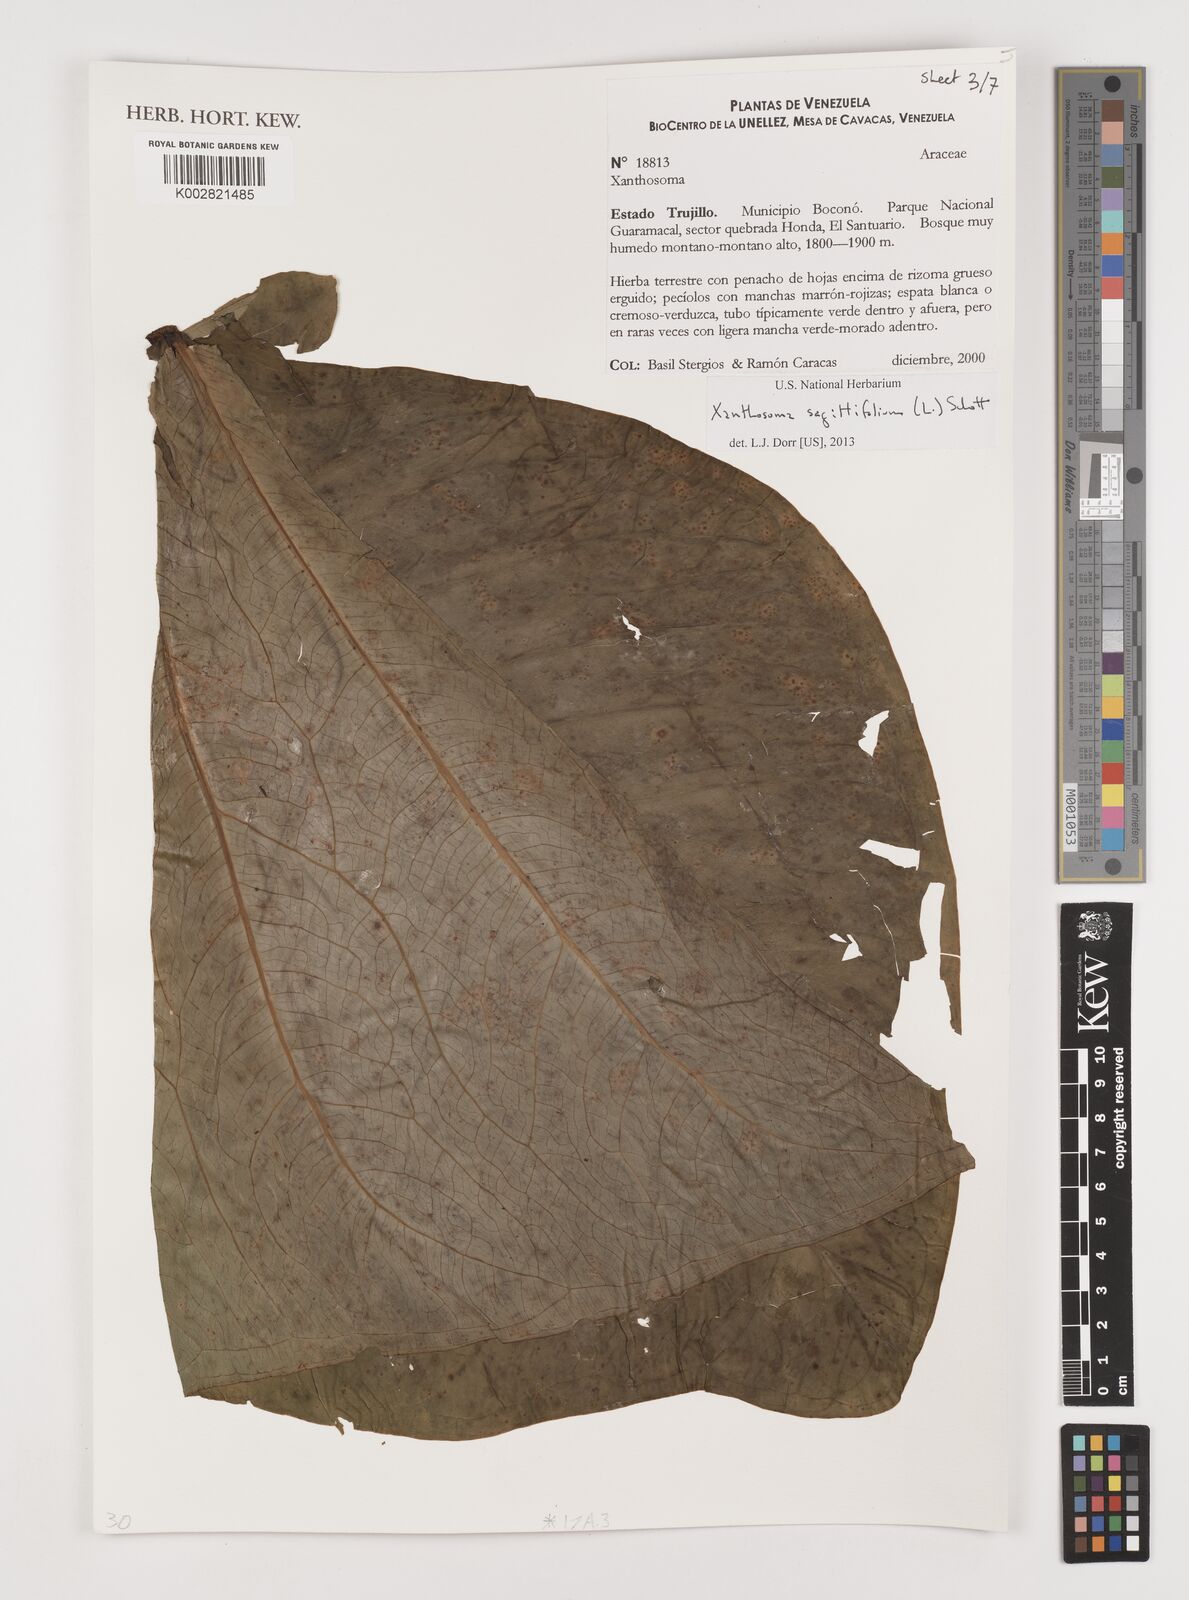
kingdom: Plantae
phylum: Tracheophyta
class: Liliopsida
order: Alismatales
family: Araceae
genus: Xanthosoma
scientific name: Xanthosoma sagittifolium
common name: Arrowleaf elephant's ear
